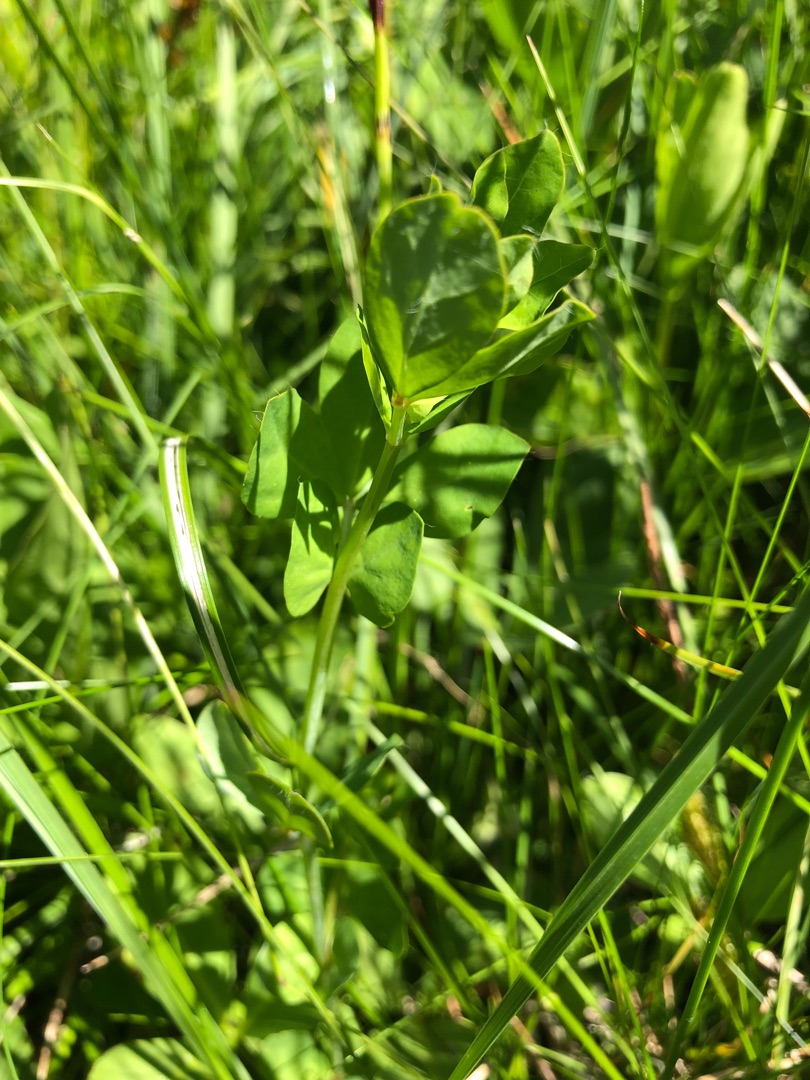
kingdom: Plantae
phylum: Tracheophyta
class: Magnoliopsida
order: Fabales
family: Fabaceae
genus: Lotus
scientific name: Lotus pedunculatus
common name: Sump-kællingetand
